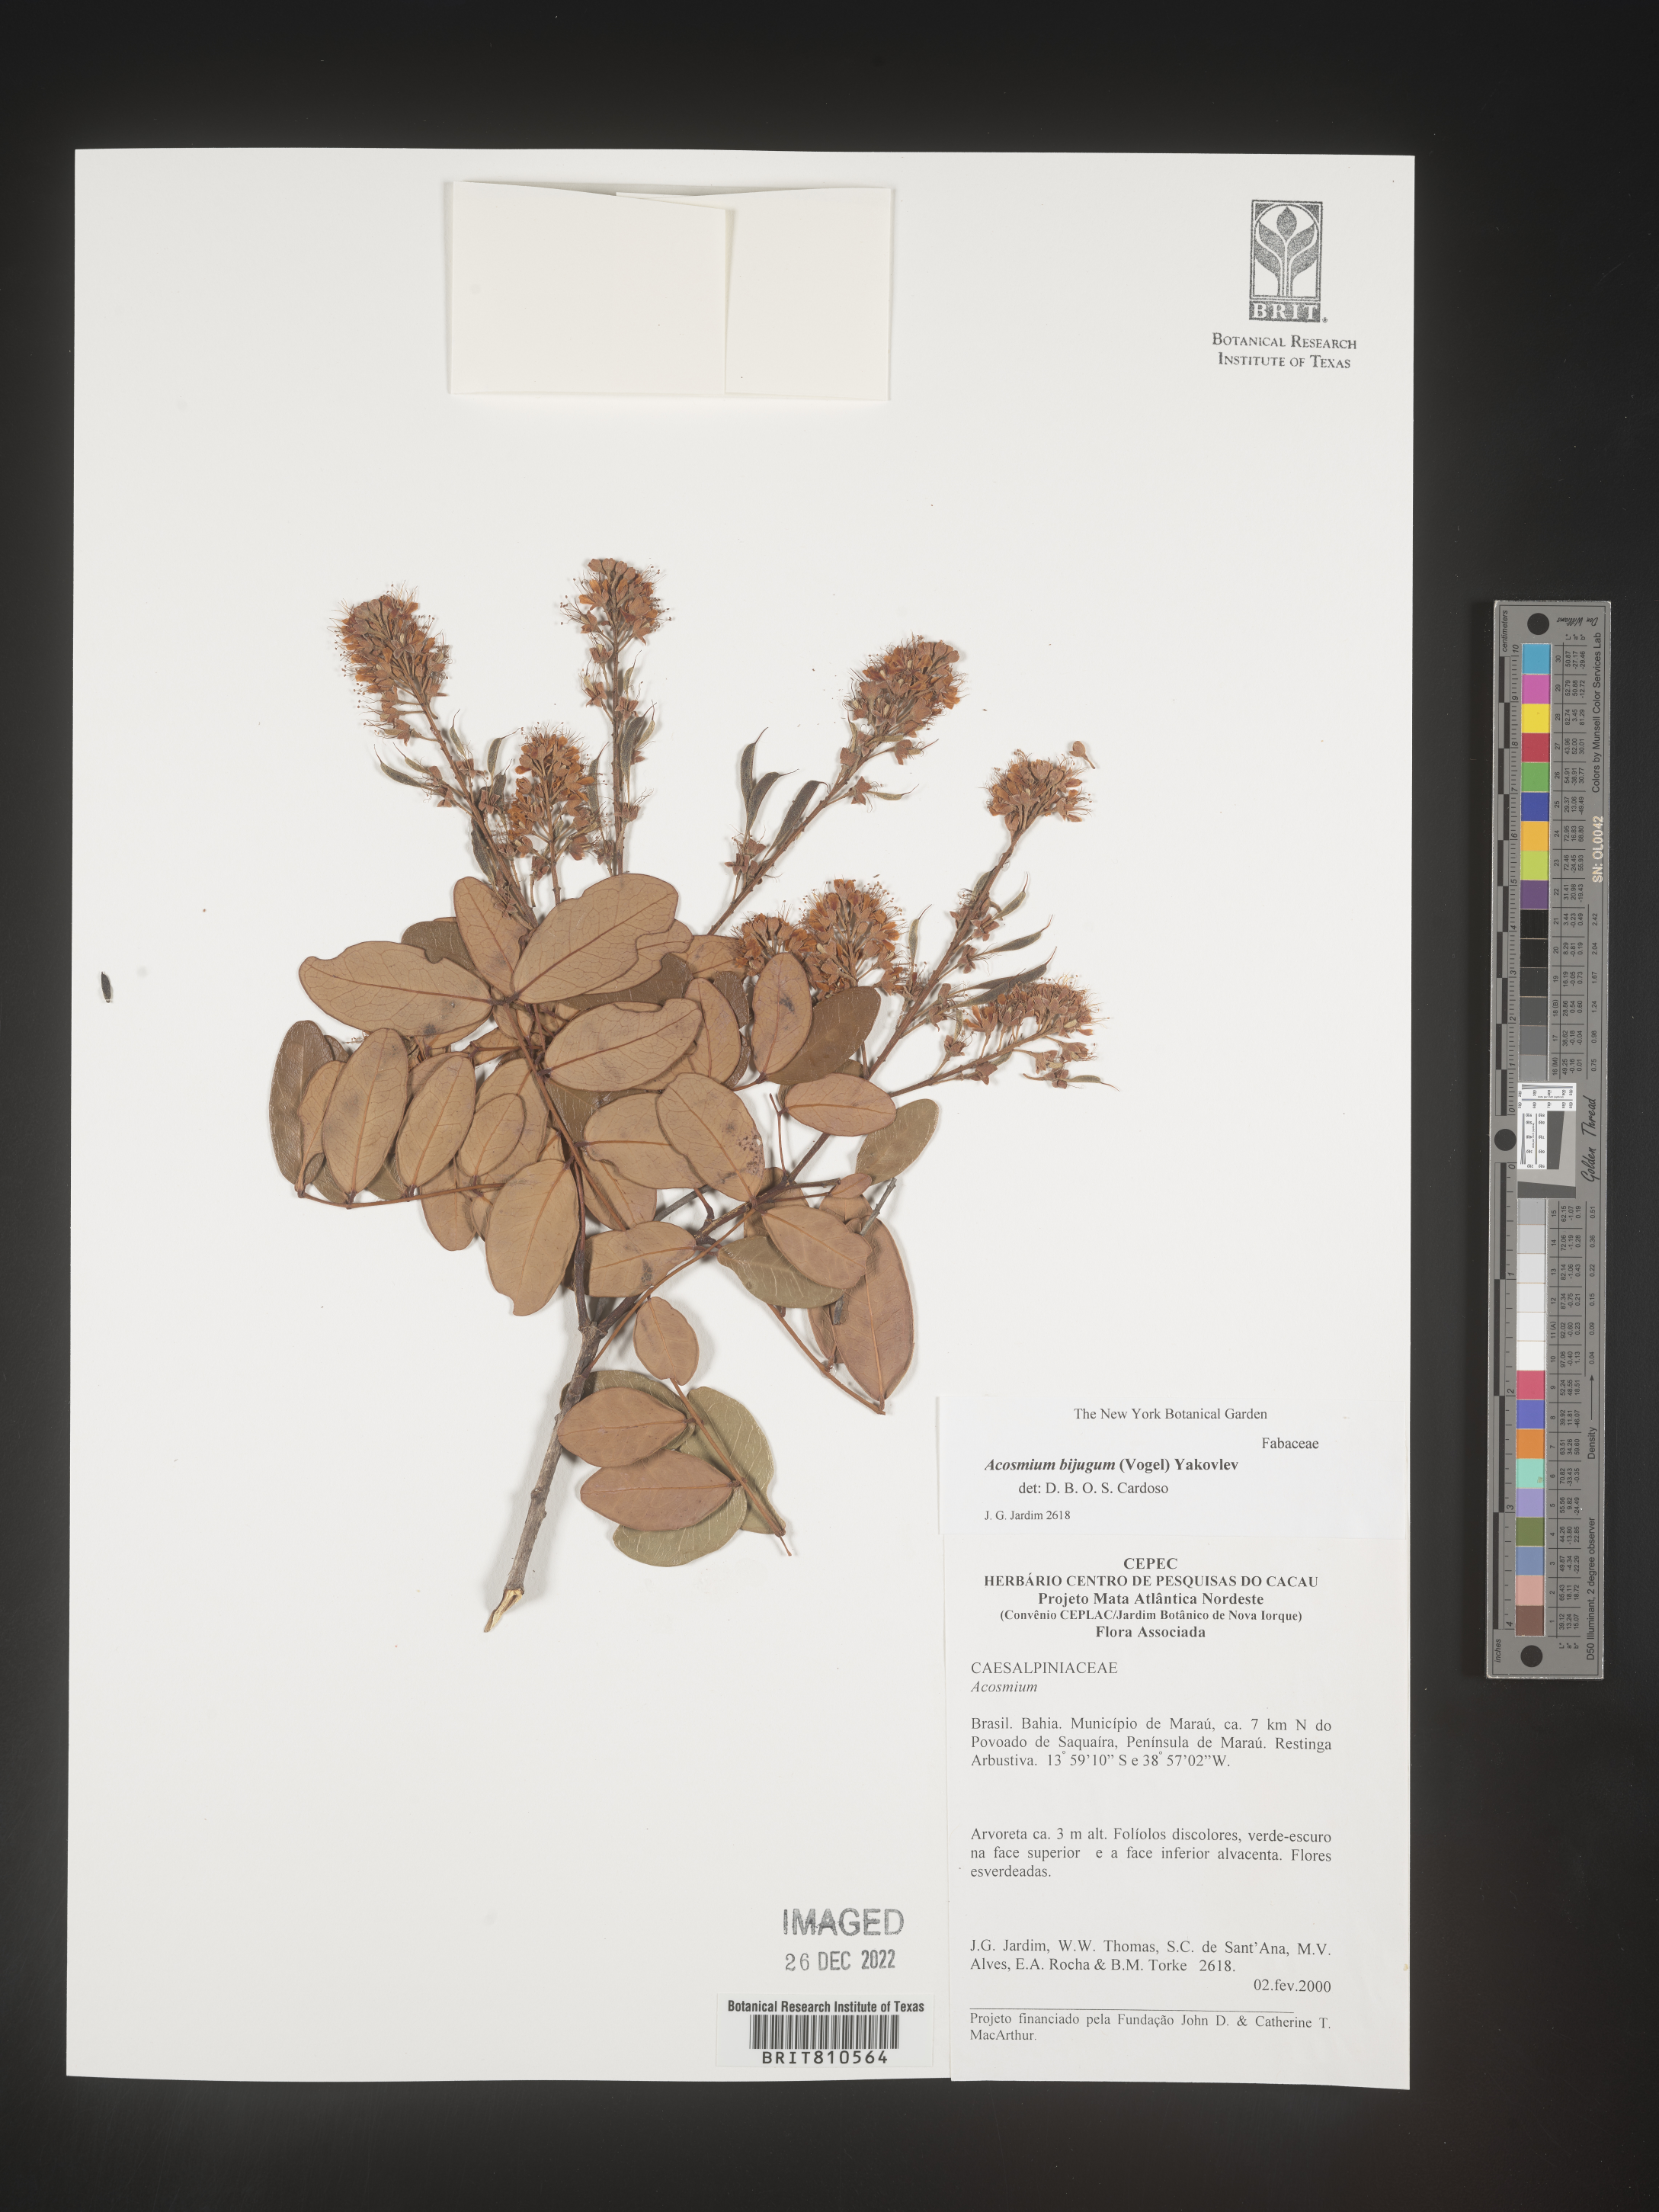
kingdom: Plantae
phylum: Tracheophyta
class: Magnoliopsida
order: Fabales
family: Fabaceae
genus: Acosmium
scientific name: Acosmium
